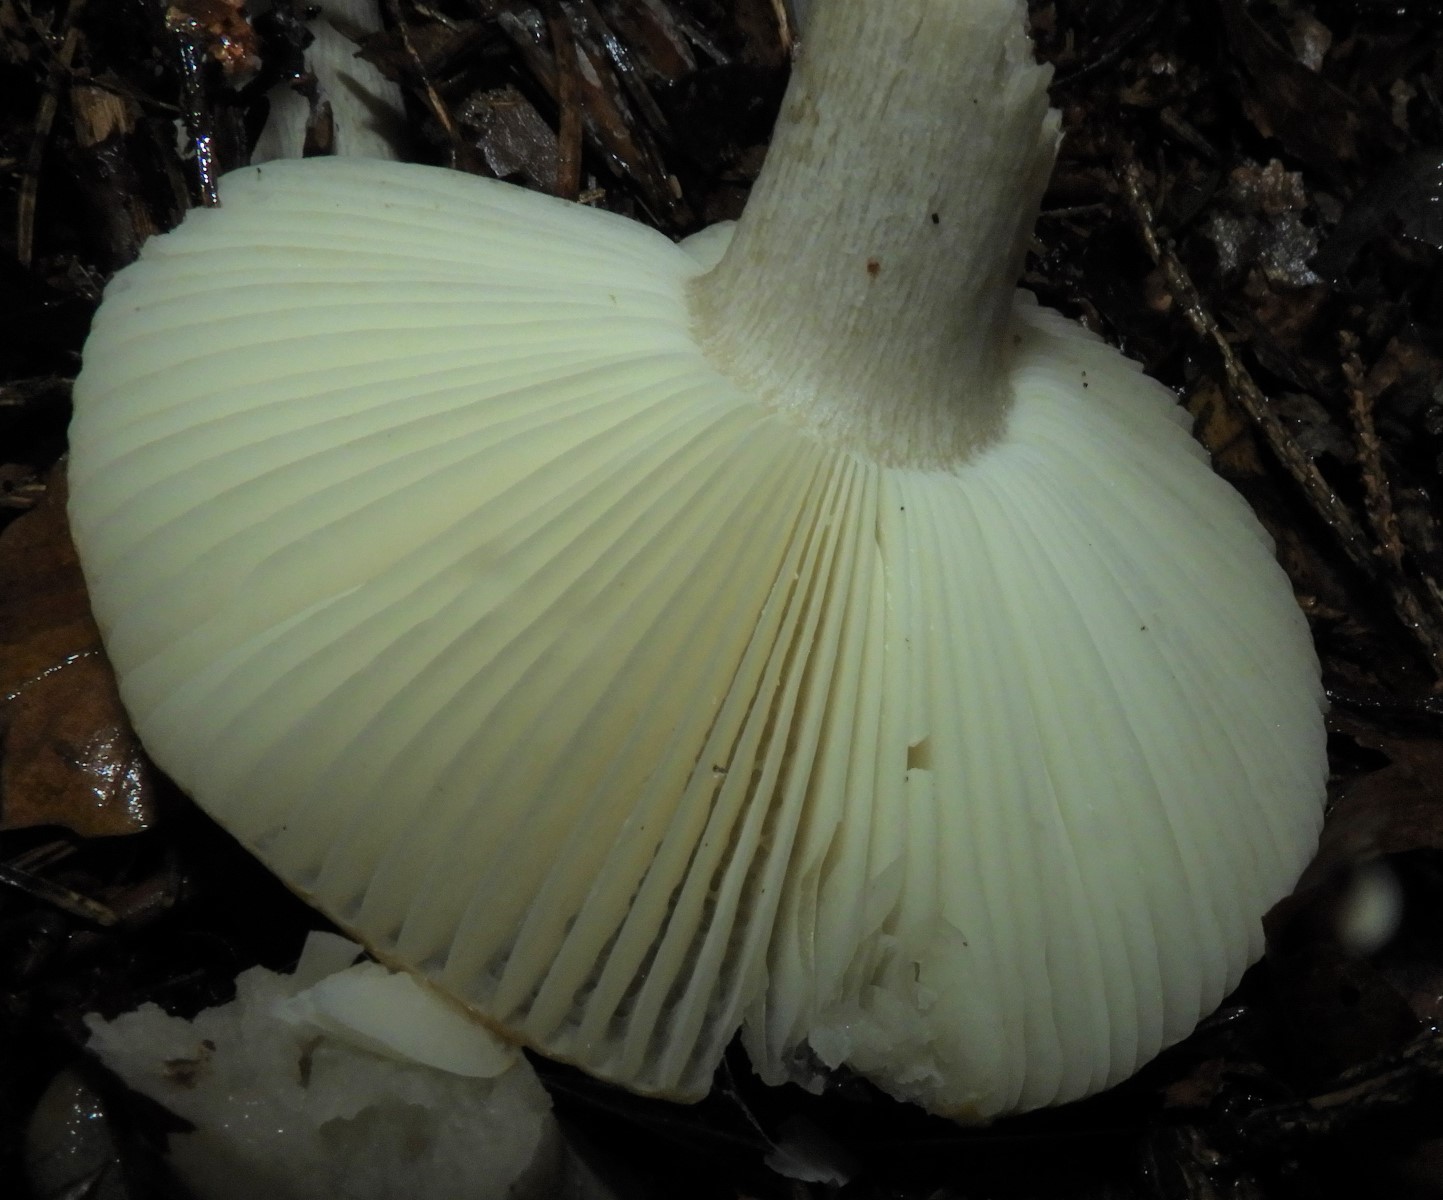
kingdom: Fungi
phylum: Basidiomycota
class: Agaricomycetes
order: Russulales
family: Russulaceae
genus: Russula
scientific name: Russula ochroleuca
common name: okkergul skørhat
